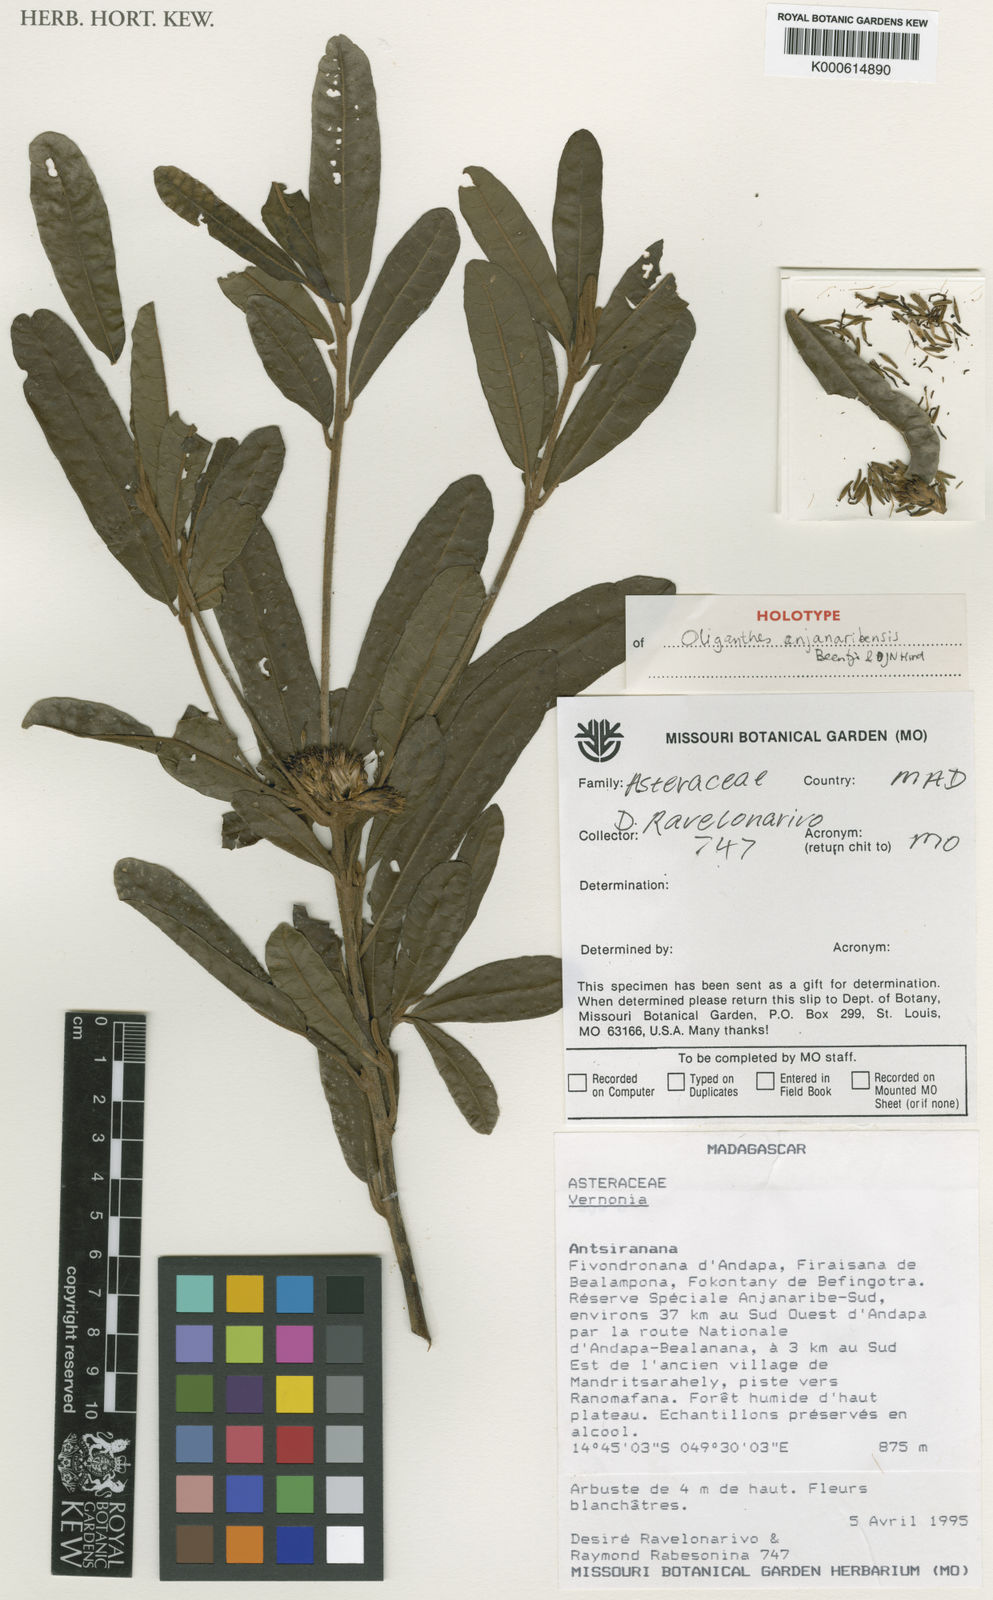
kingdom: Plantae
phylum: Tracheophyta
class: Magnoliopsida
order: Asterales
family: Asteraceae
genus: Oliganthes
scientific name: Oliganthes anjanaribensis
